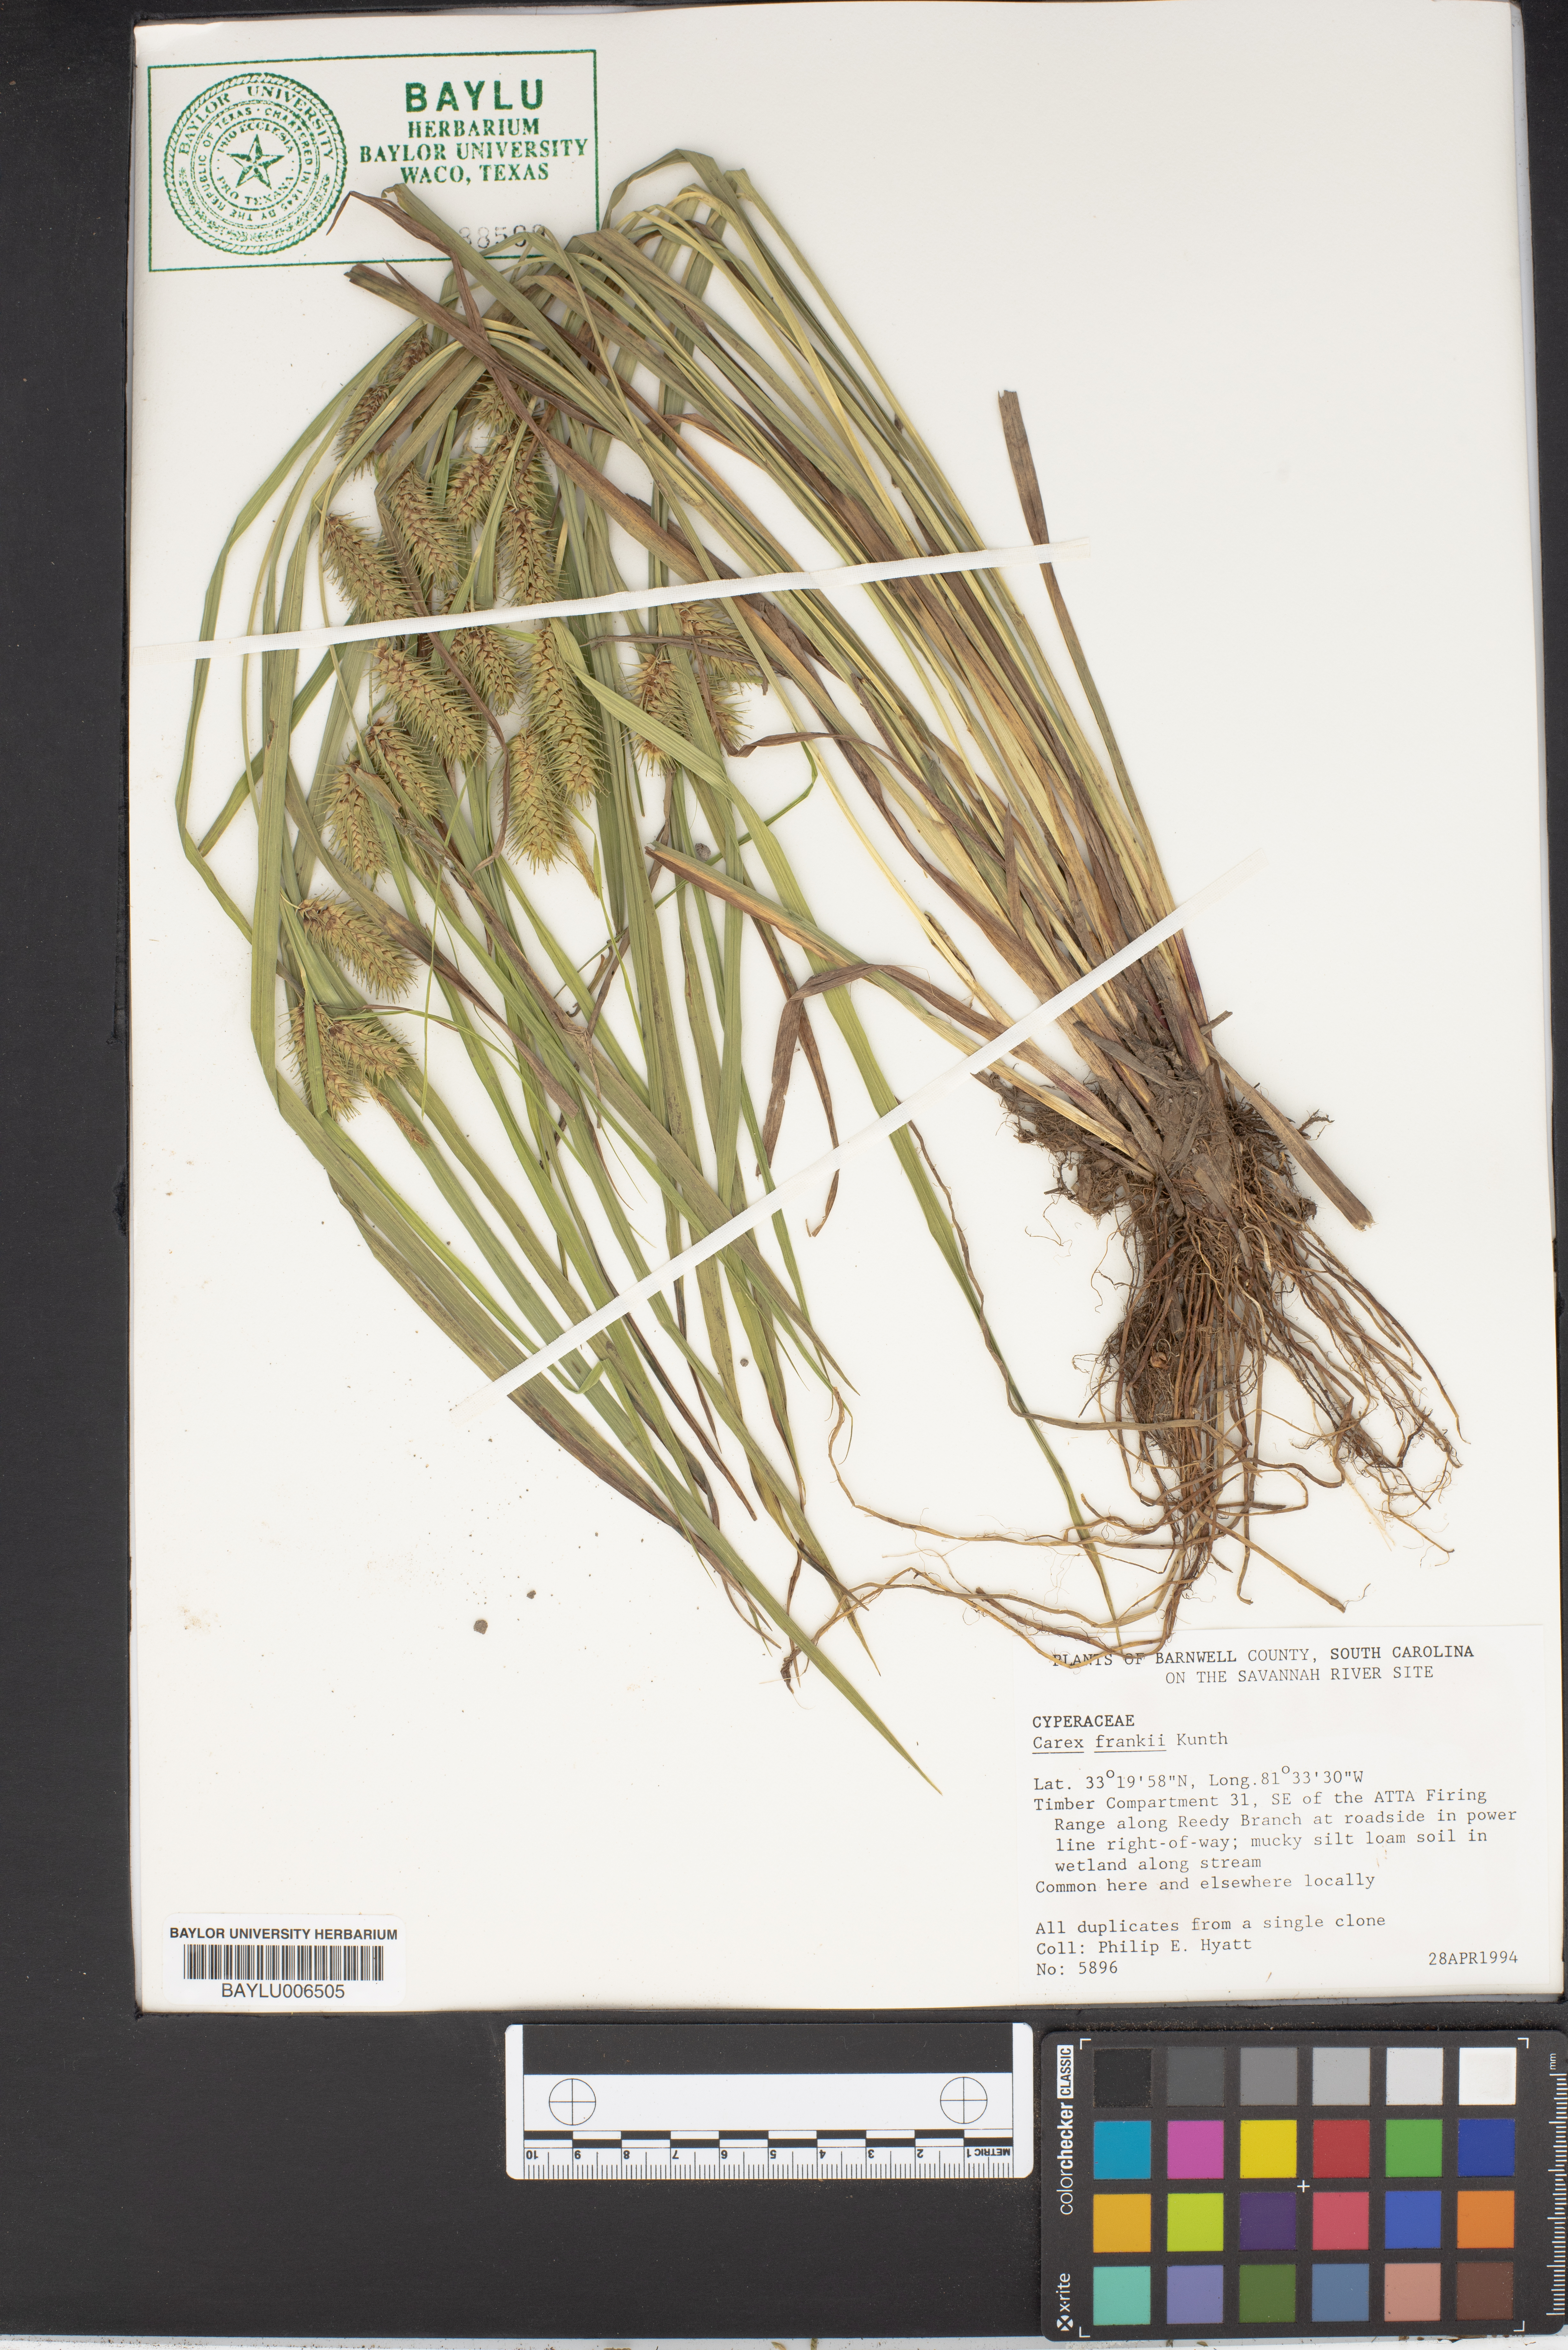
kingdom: Plantae
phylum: Tracheophyta
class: Liliopsida
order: Poales
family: Cyperaceae
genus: Carex
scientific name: Carex frankii
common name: Frank's sedge
